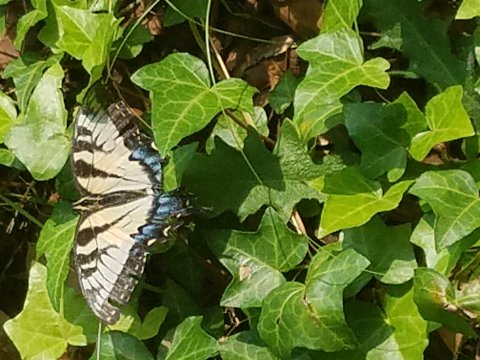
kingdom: Animalia
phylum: Arthropoda
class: Insecta
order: Lepidoptera
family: Papilionidae
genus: Pterourus
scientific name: Pterourus glaucus
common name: Eastern Tiger Swallowtail
